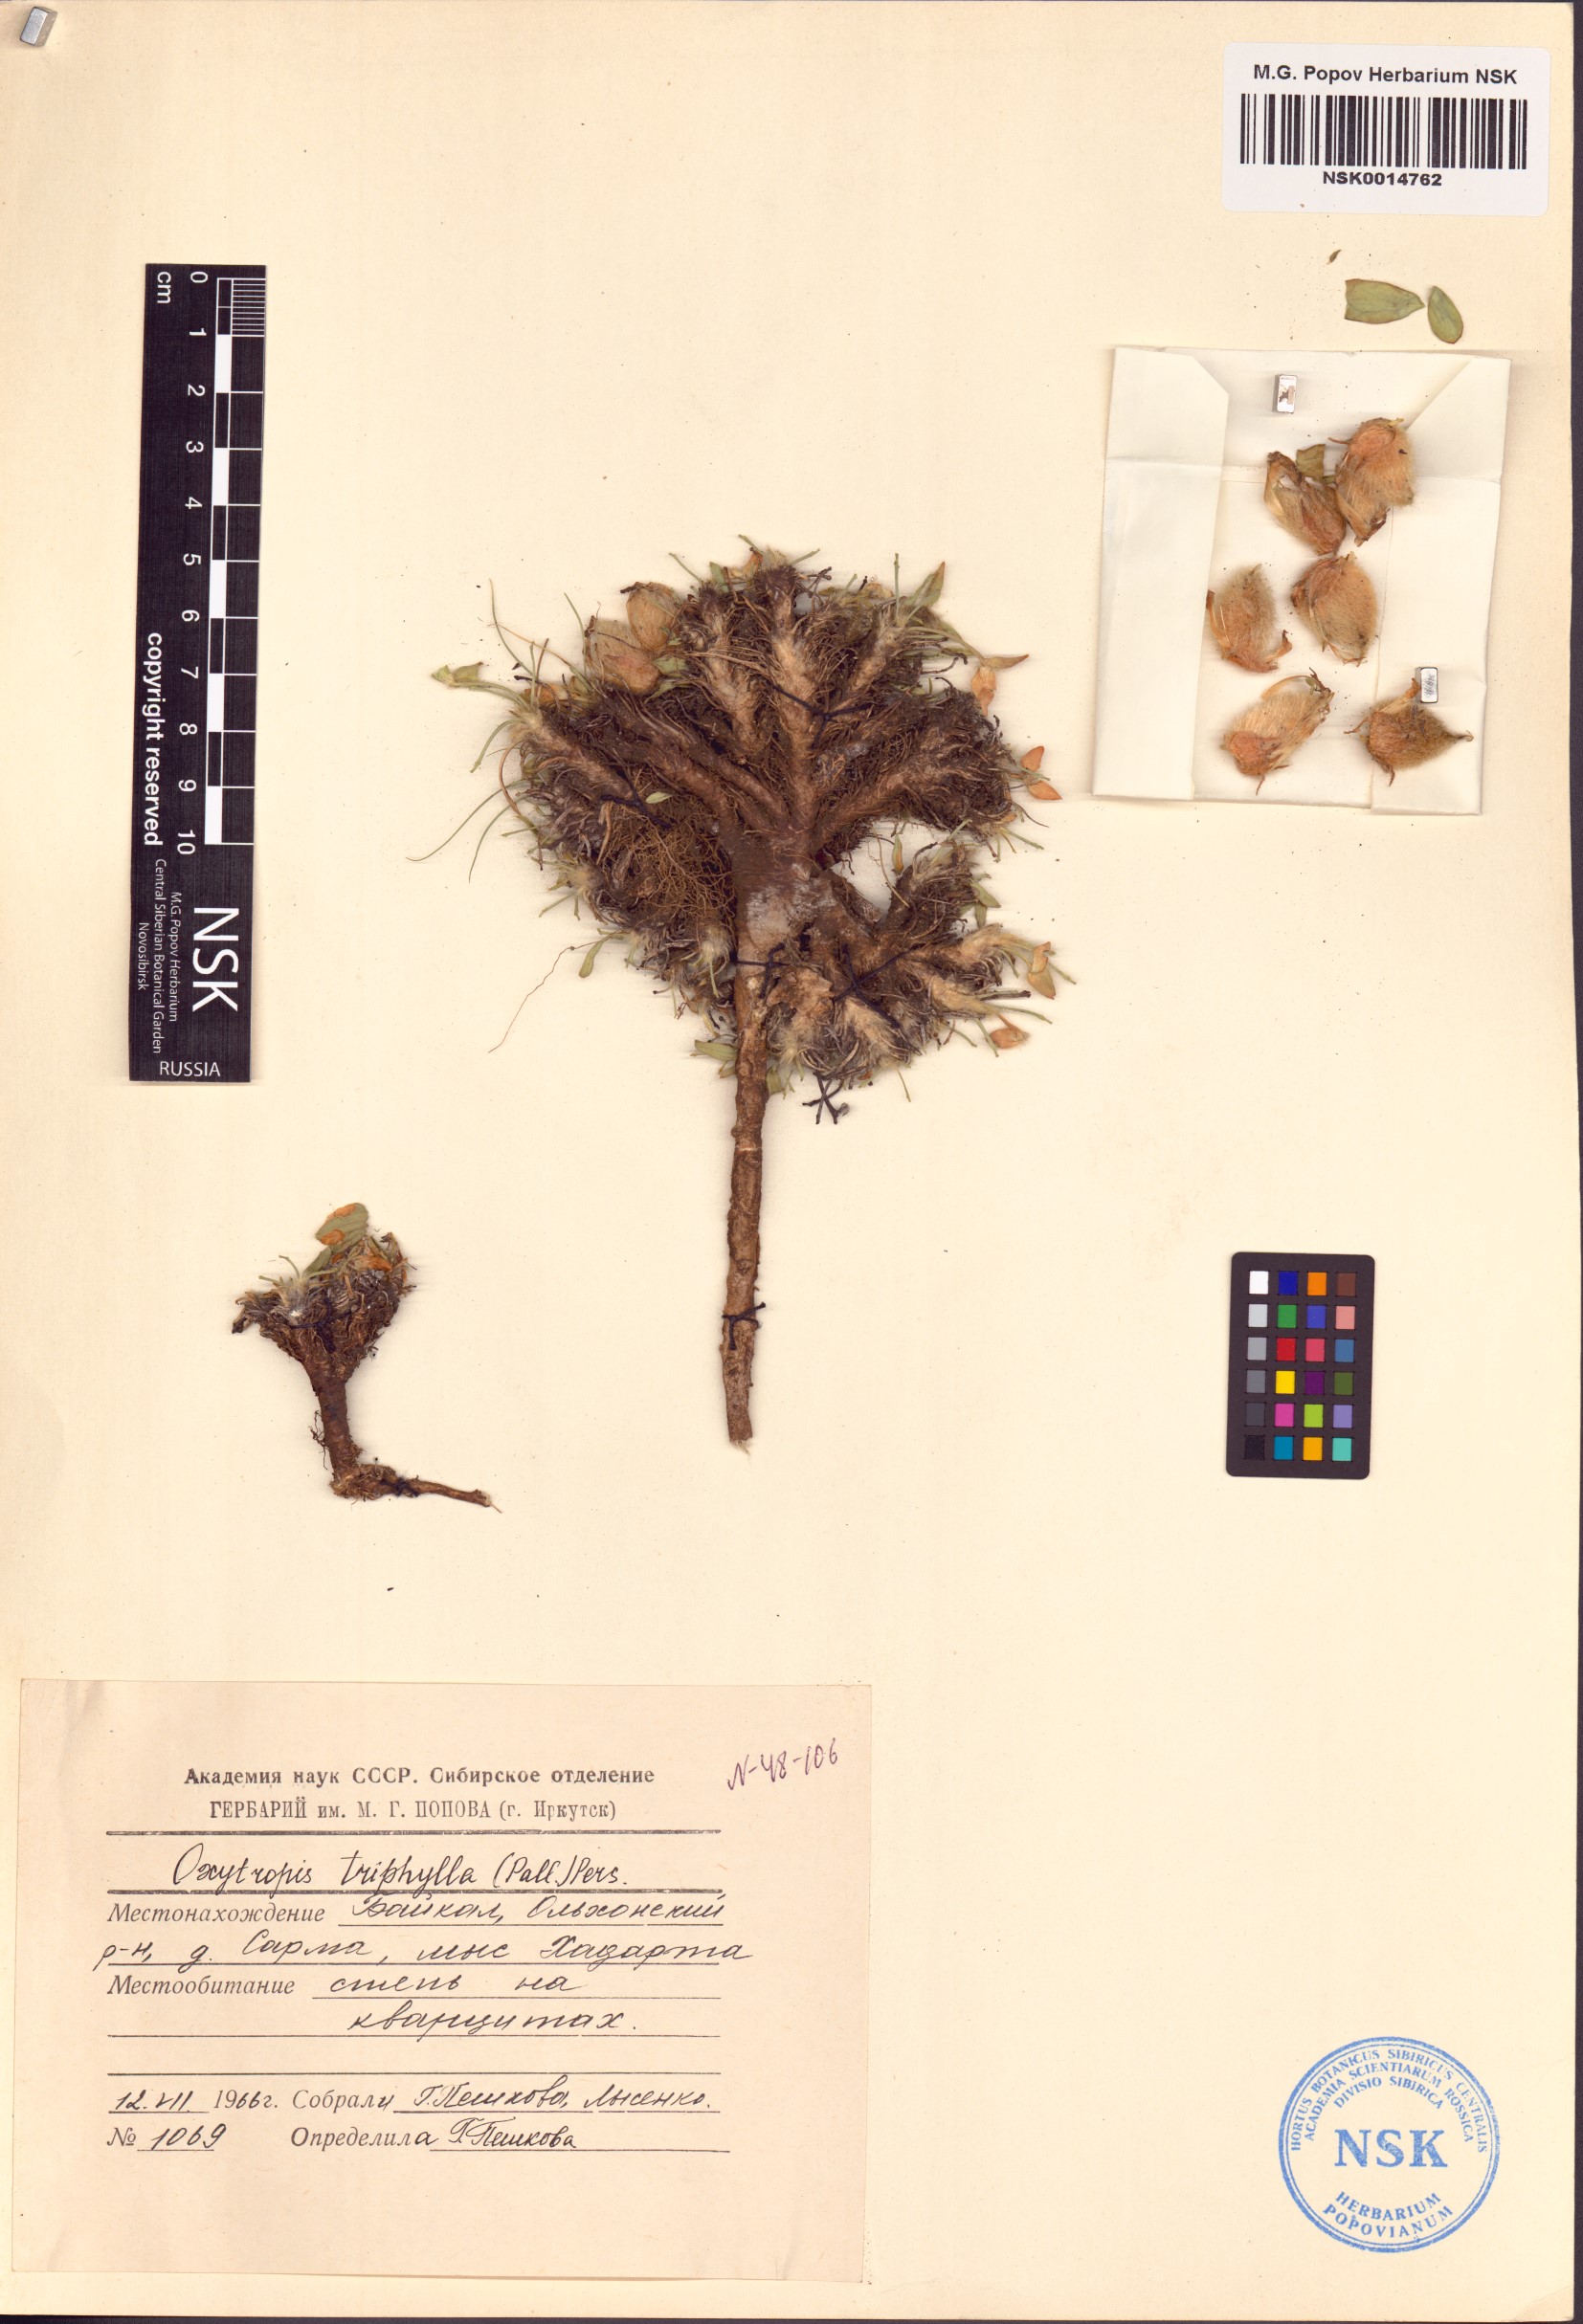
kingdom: Plantae
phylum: Tracheophyta
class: Magnoliopsida
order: Fabales
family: Fabaceae
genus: Oxytropis
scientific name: Oxytropis triphylla
